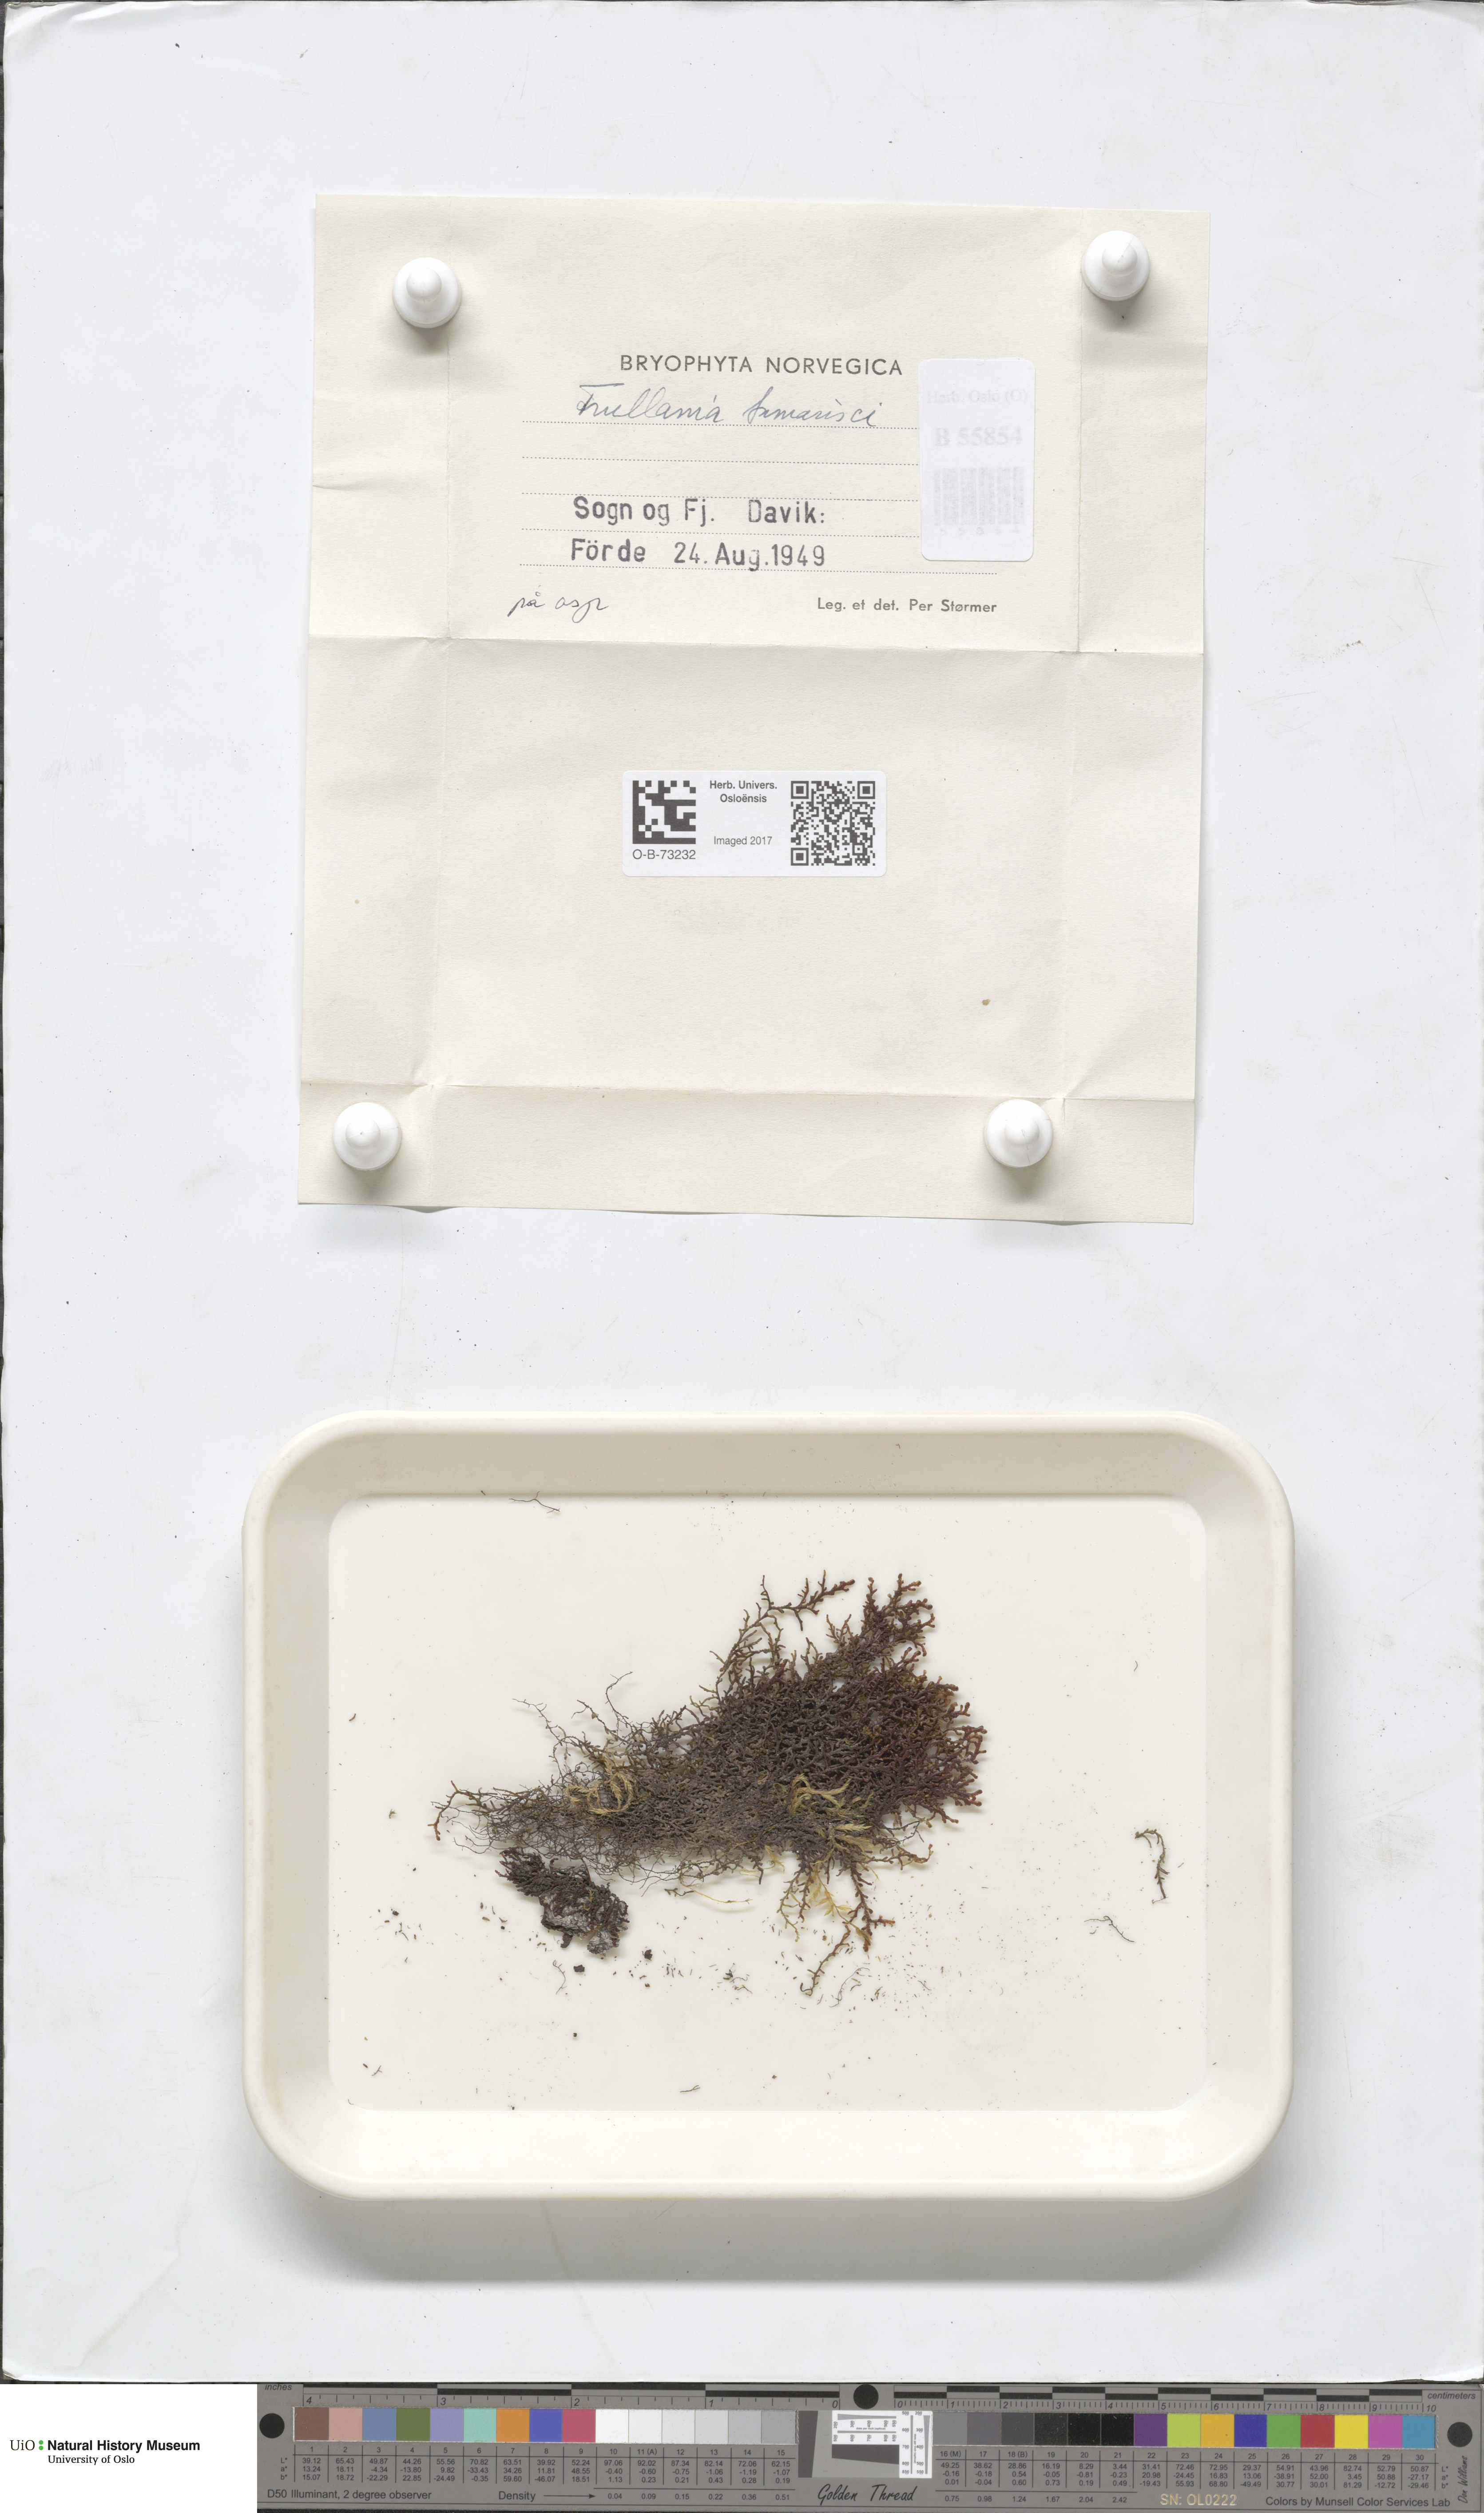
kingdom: Plantae
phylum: Marchantiophyta
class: Jungermanniopsida
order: Porellales
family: Frullaniaceae
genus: Frullania
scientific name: Frullania tamarisci
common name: Tamarisk scalewort
